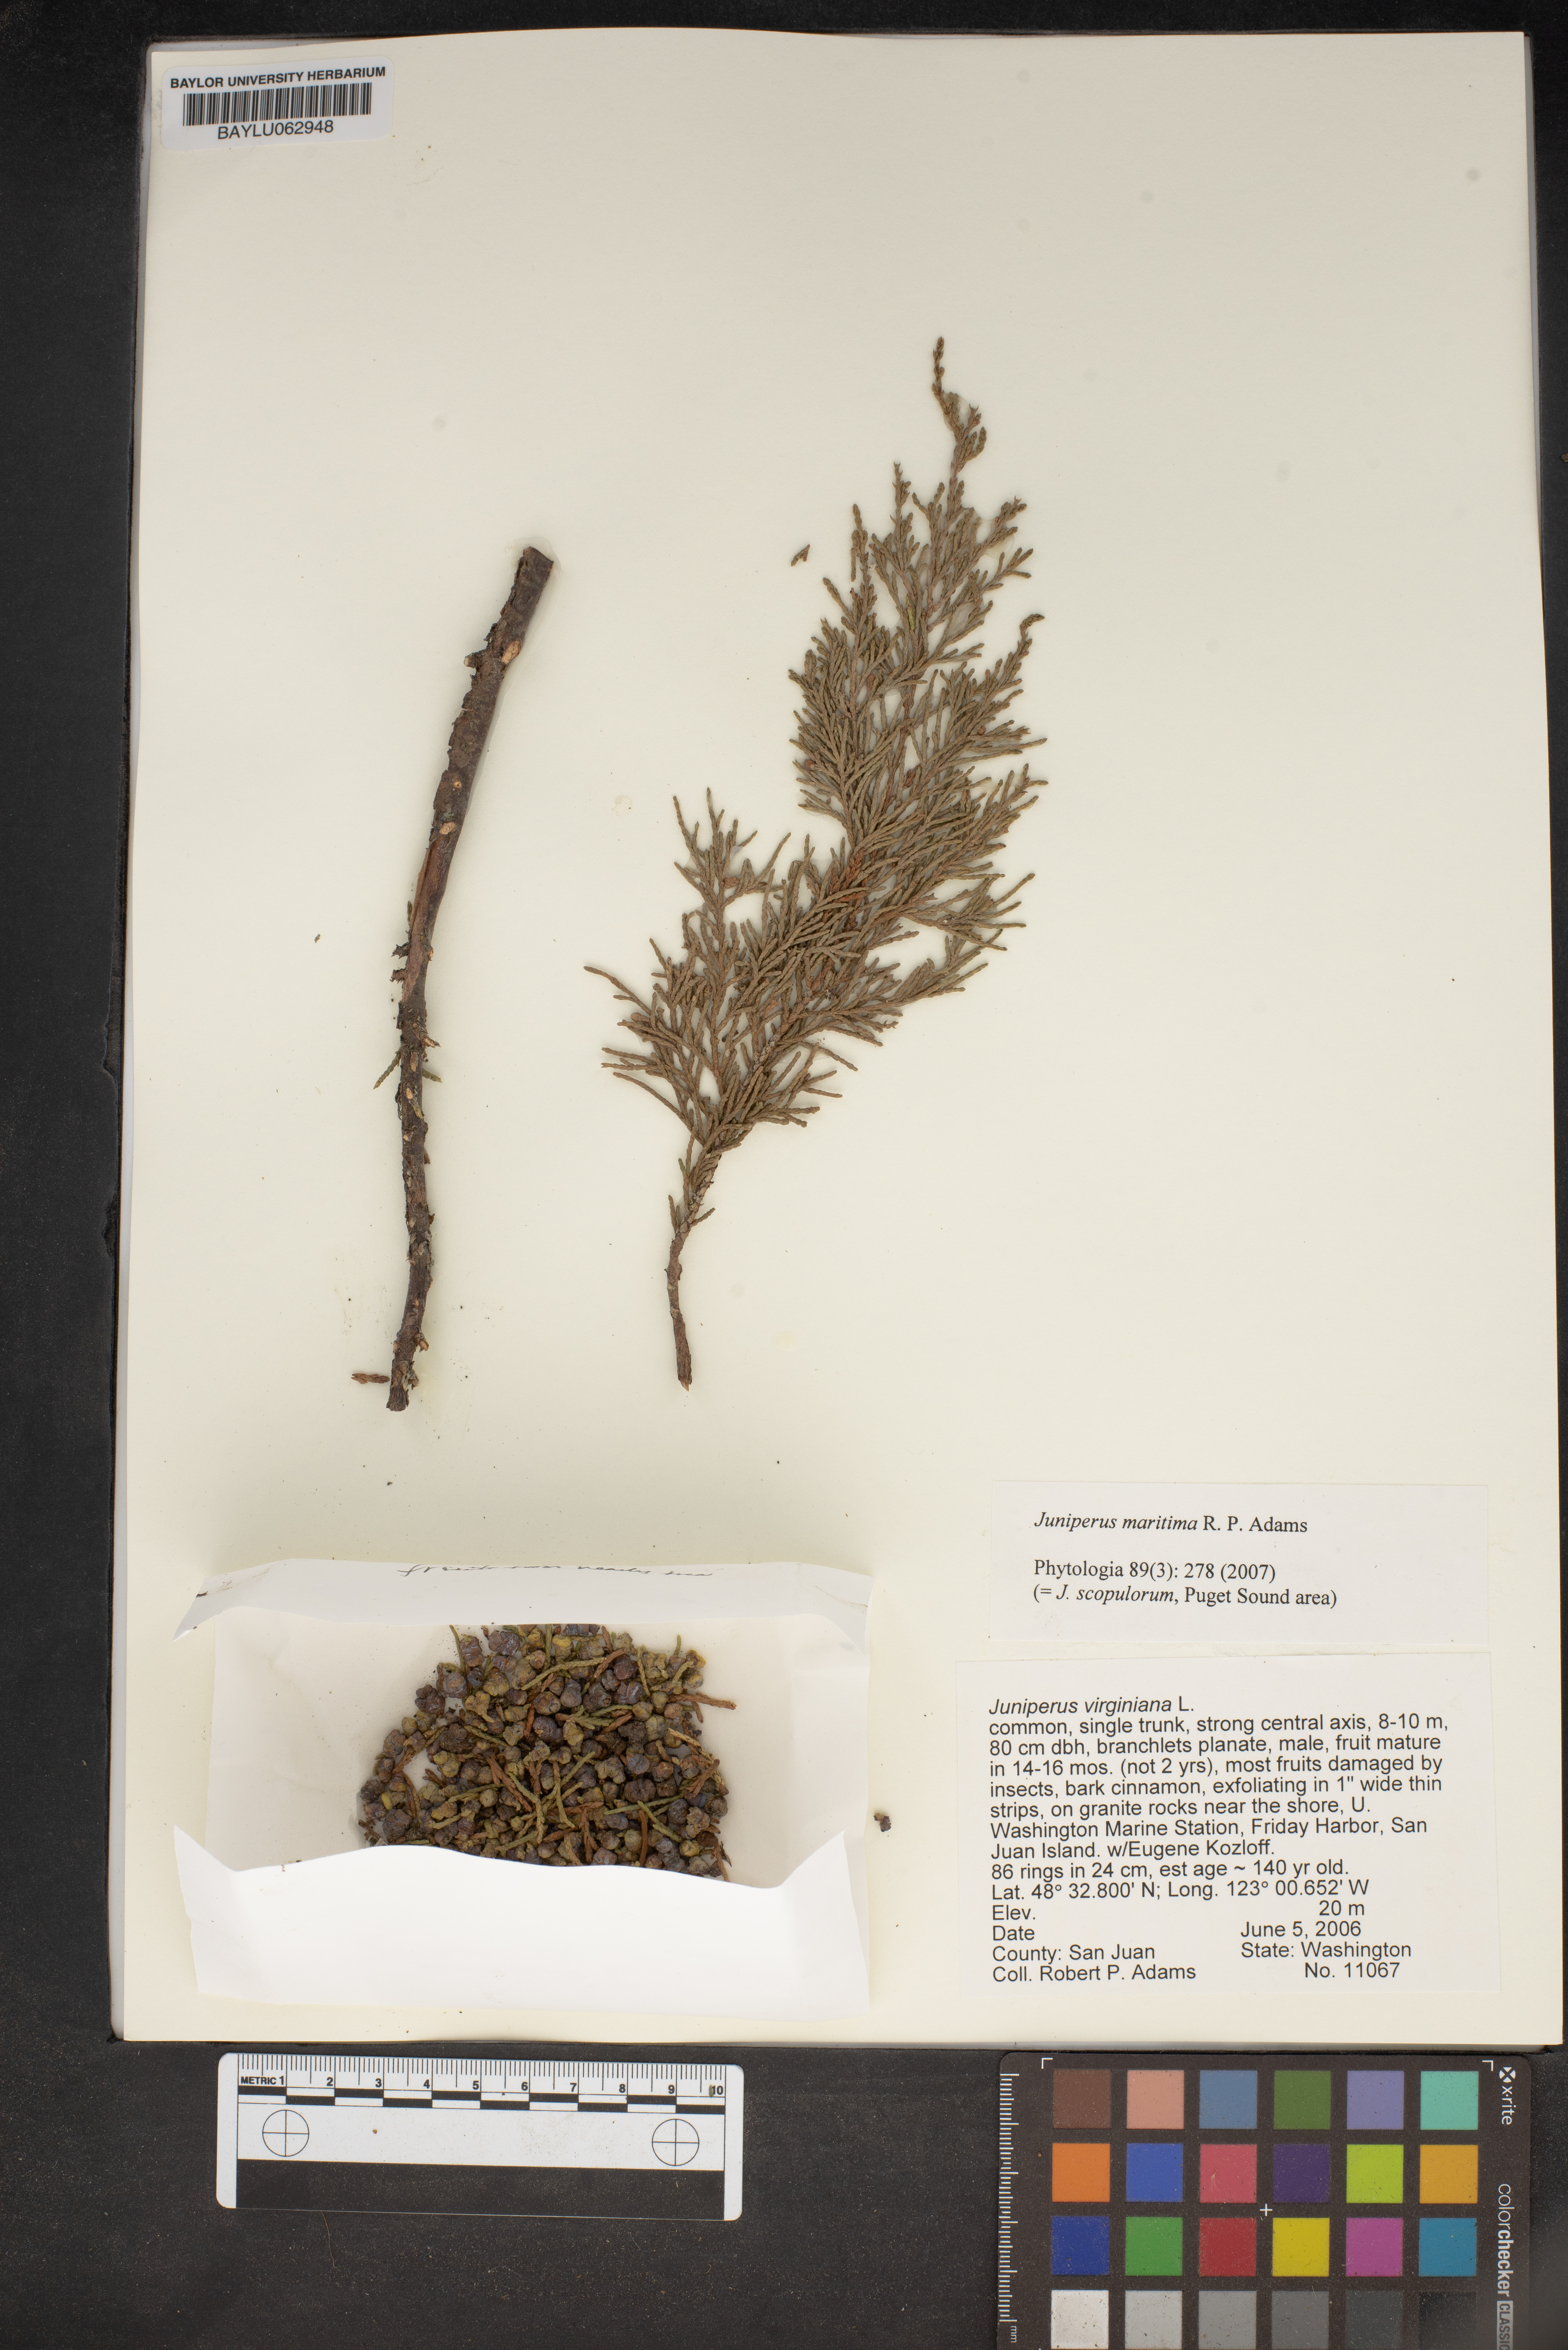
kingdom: Plantae
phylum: Tracheophyta
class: Pinopsida
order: Pinales
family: Cupressaceae
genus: Juniperus
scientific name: Juniperus virginiana
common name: Red juniper
